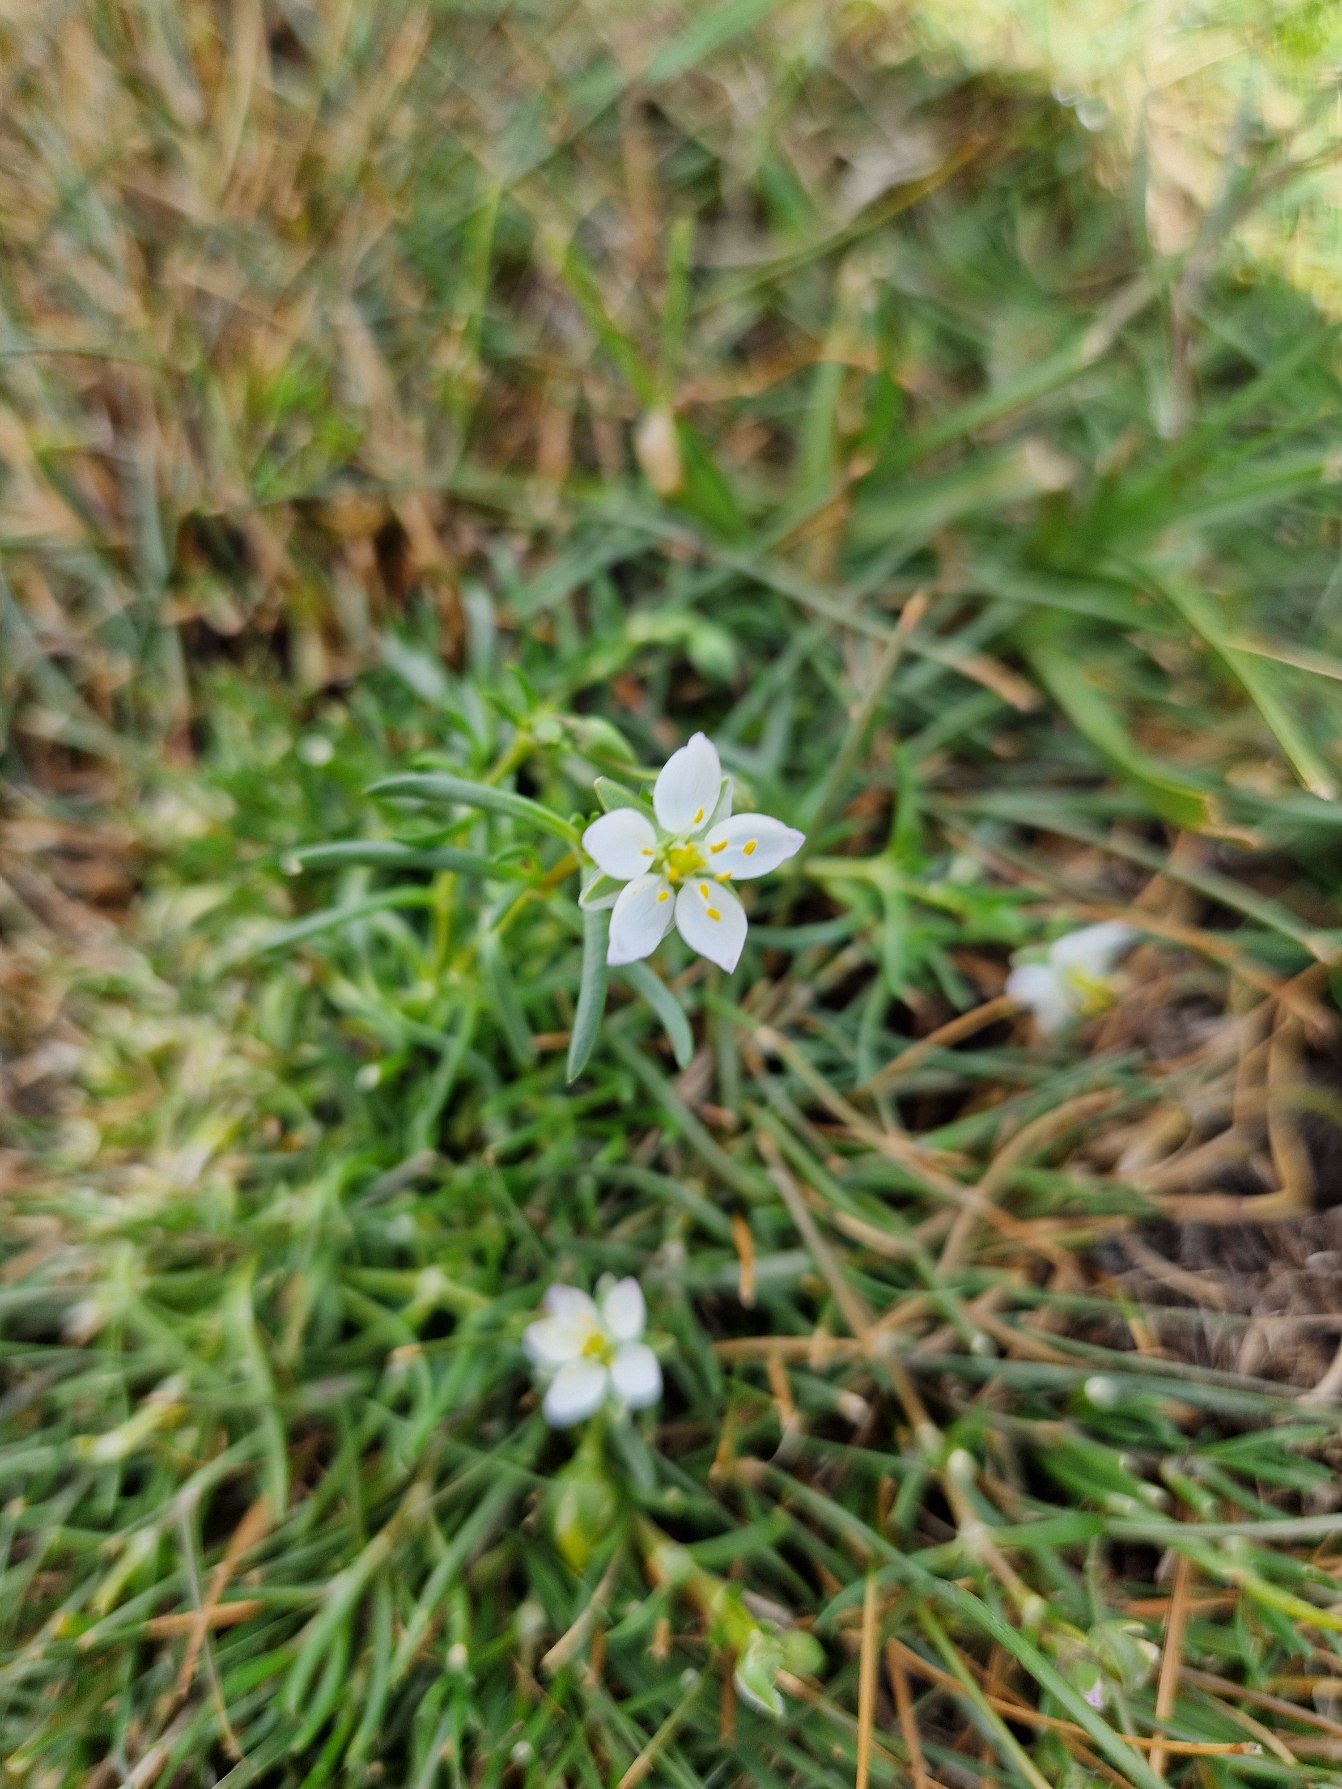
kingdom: Plantae
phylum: Tracheophyta
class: Magnoliopsida
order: Caryophyllales
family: Caryophyllaceae
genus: Spergularia
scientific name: Spergularia media
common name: Vingefrøet hindeknæ
